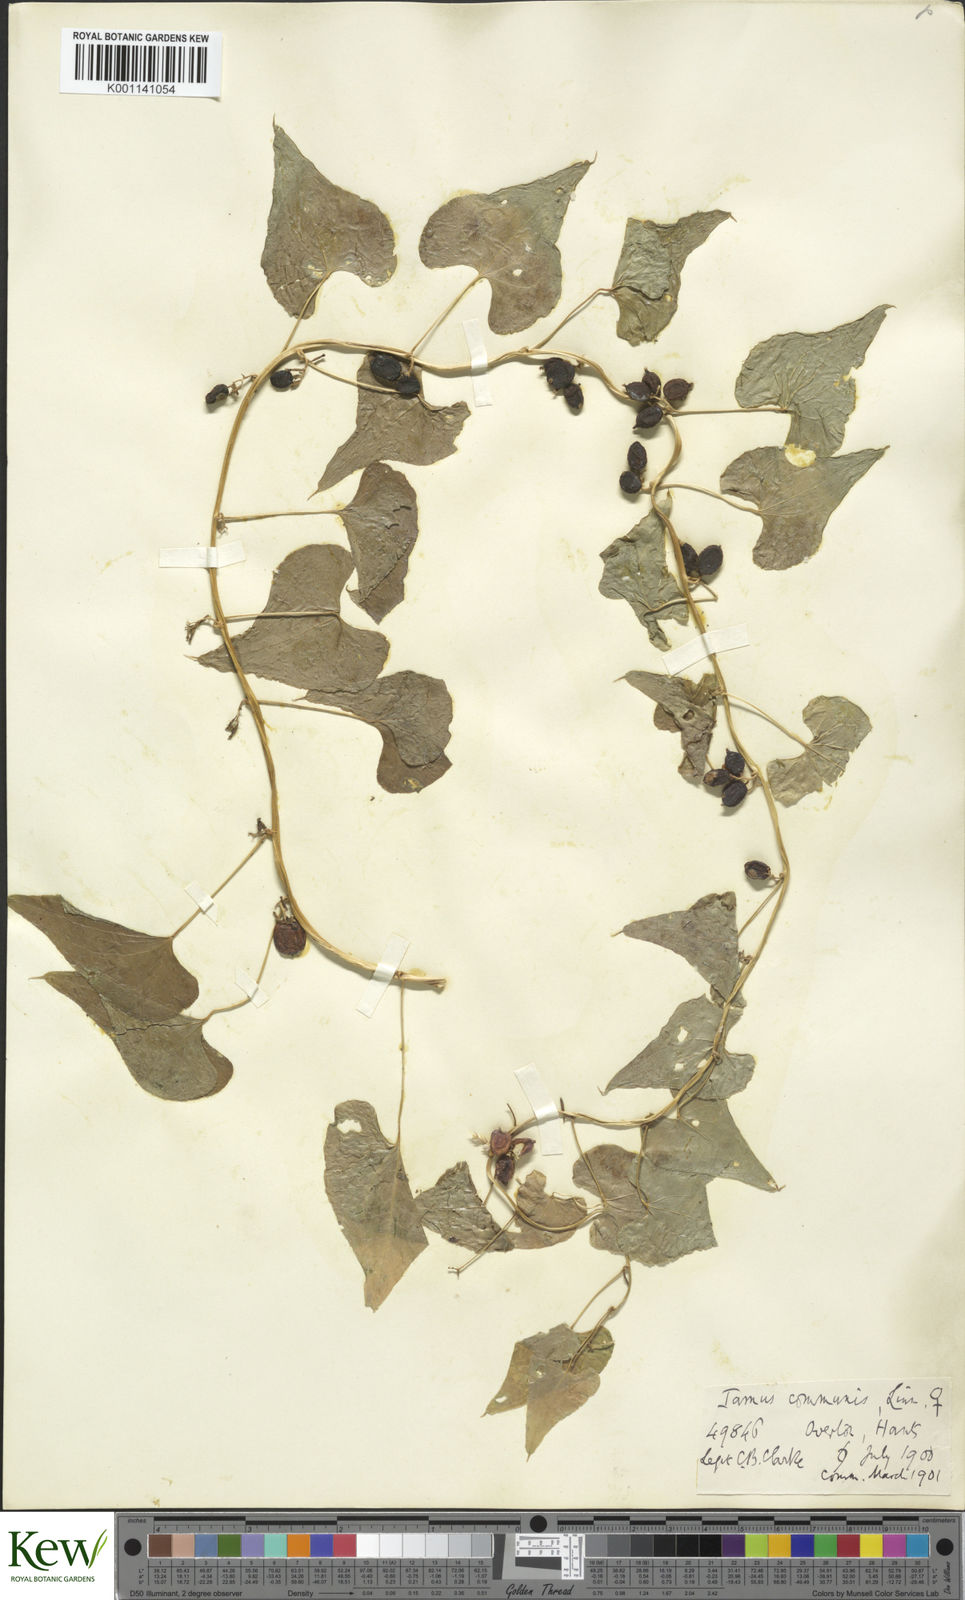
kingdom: Plantae
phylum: Tracheophyta
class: Liliopsida
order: Dioscoreales
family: Dioscoreaceae
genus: Dioscorea
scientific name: Dioscorea communis
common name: Black-bindweed
